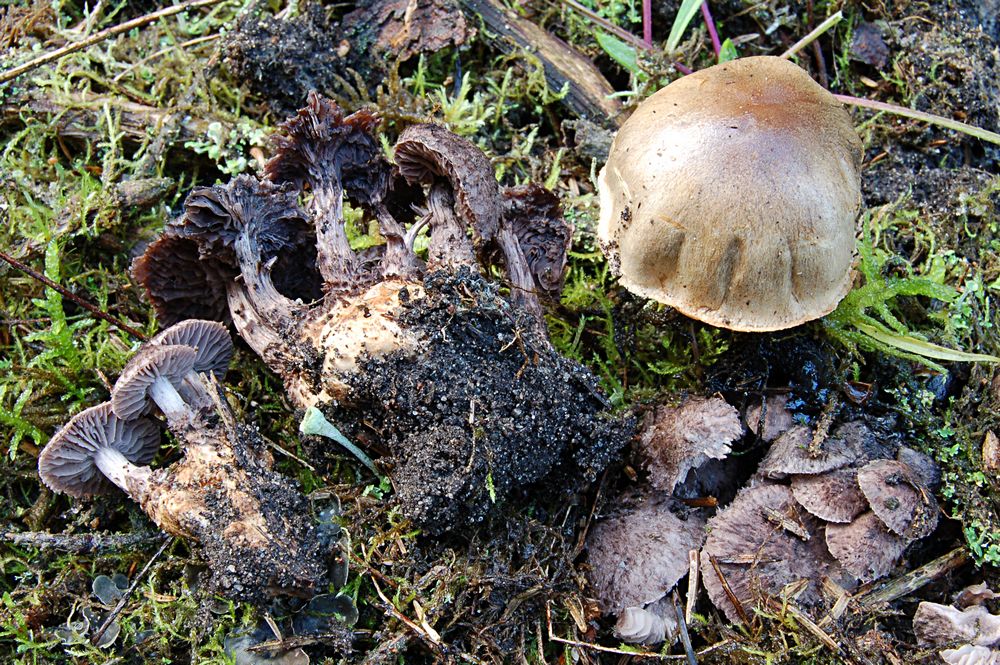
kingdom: Fungi
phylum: Basidiomycota
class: Agaricomycetes
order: Agaricales
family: Squamanitaceae
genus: Dissoderma
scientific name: Dissoderma odoratum
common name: vellugtende knoldfod
